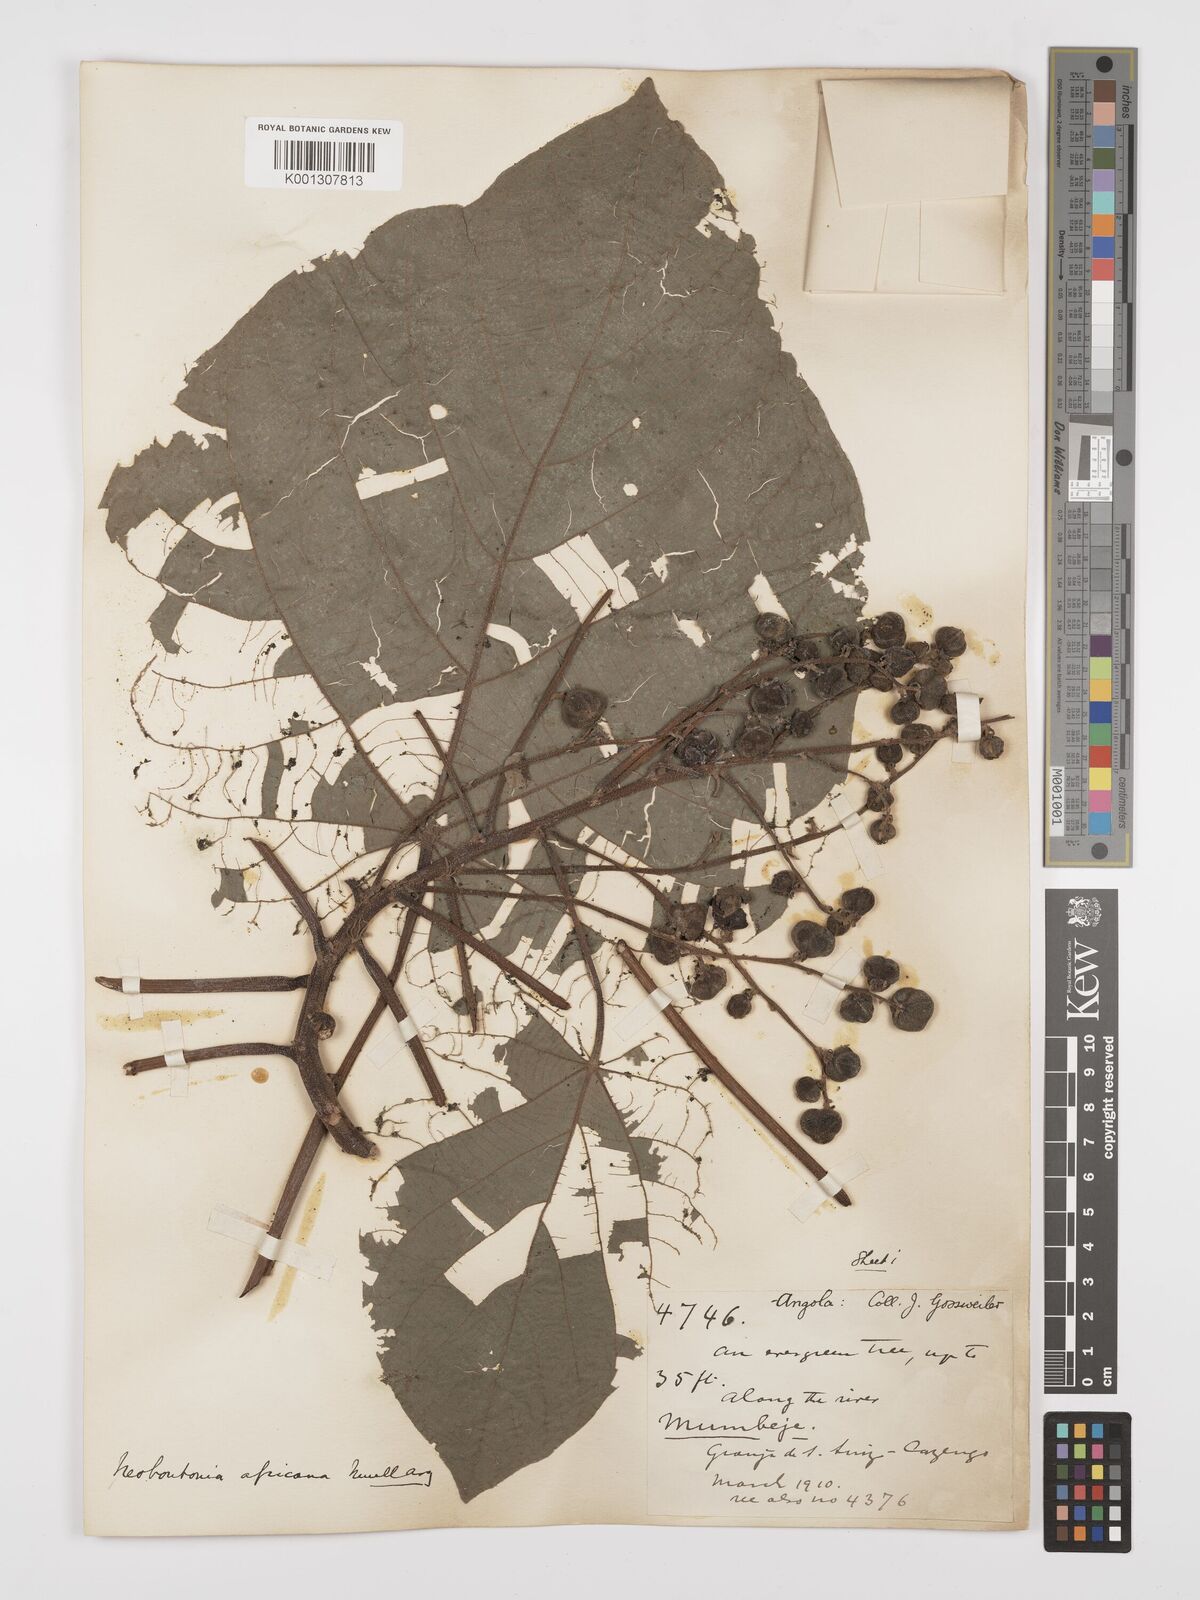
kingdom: Plantae
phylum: Tracheophyta
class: Magnoliopsida
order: Malpighiales
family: Euphorbiaceae
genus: Neoboutonia
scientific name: Neoboutonia
